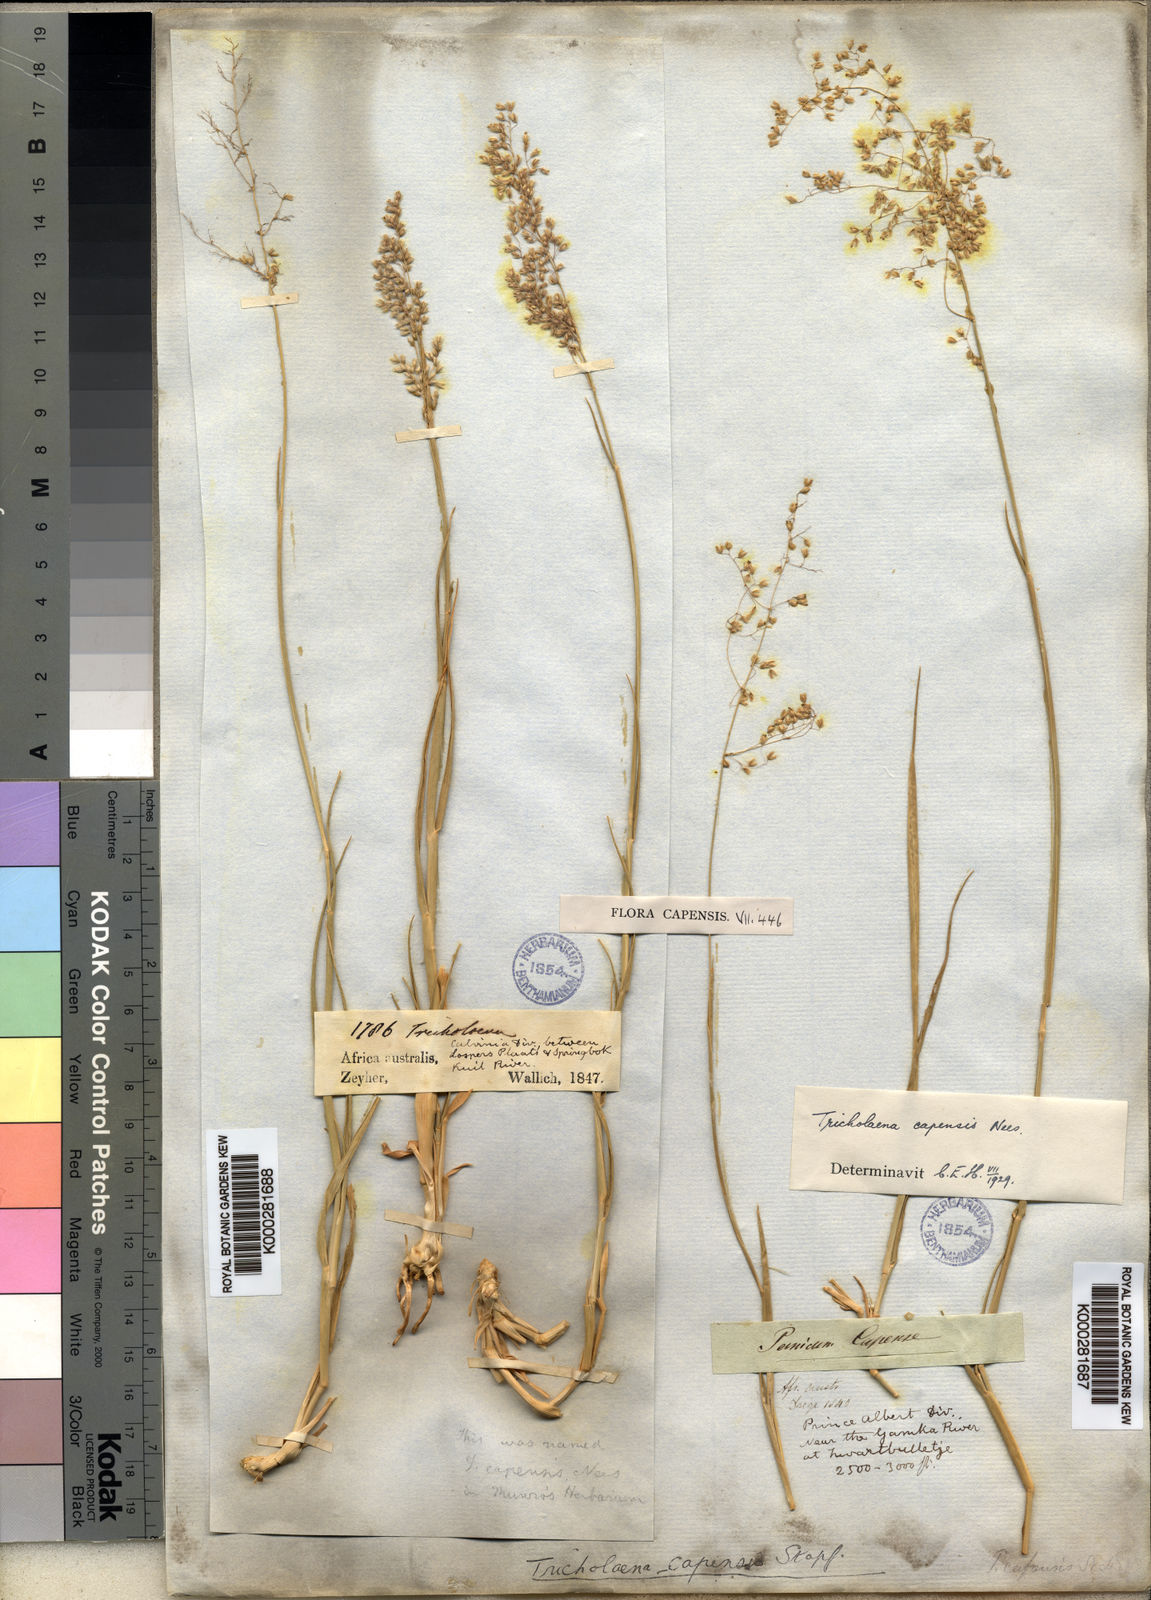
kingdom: Plantae
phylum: Tracheophyta
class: Liliopsida
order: Poales
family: Poaceae
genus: Tricholaena
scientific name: Tricholaena capensis
